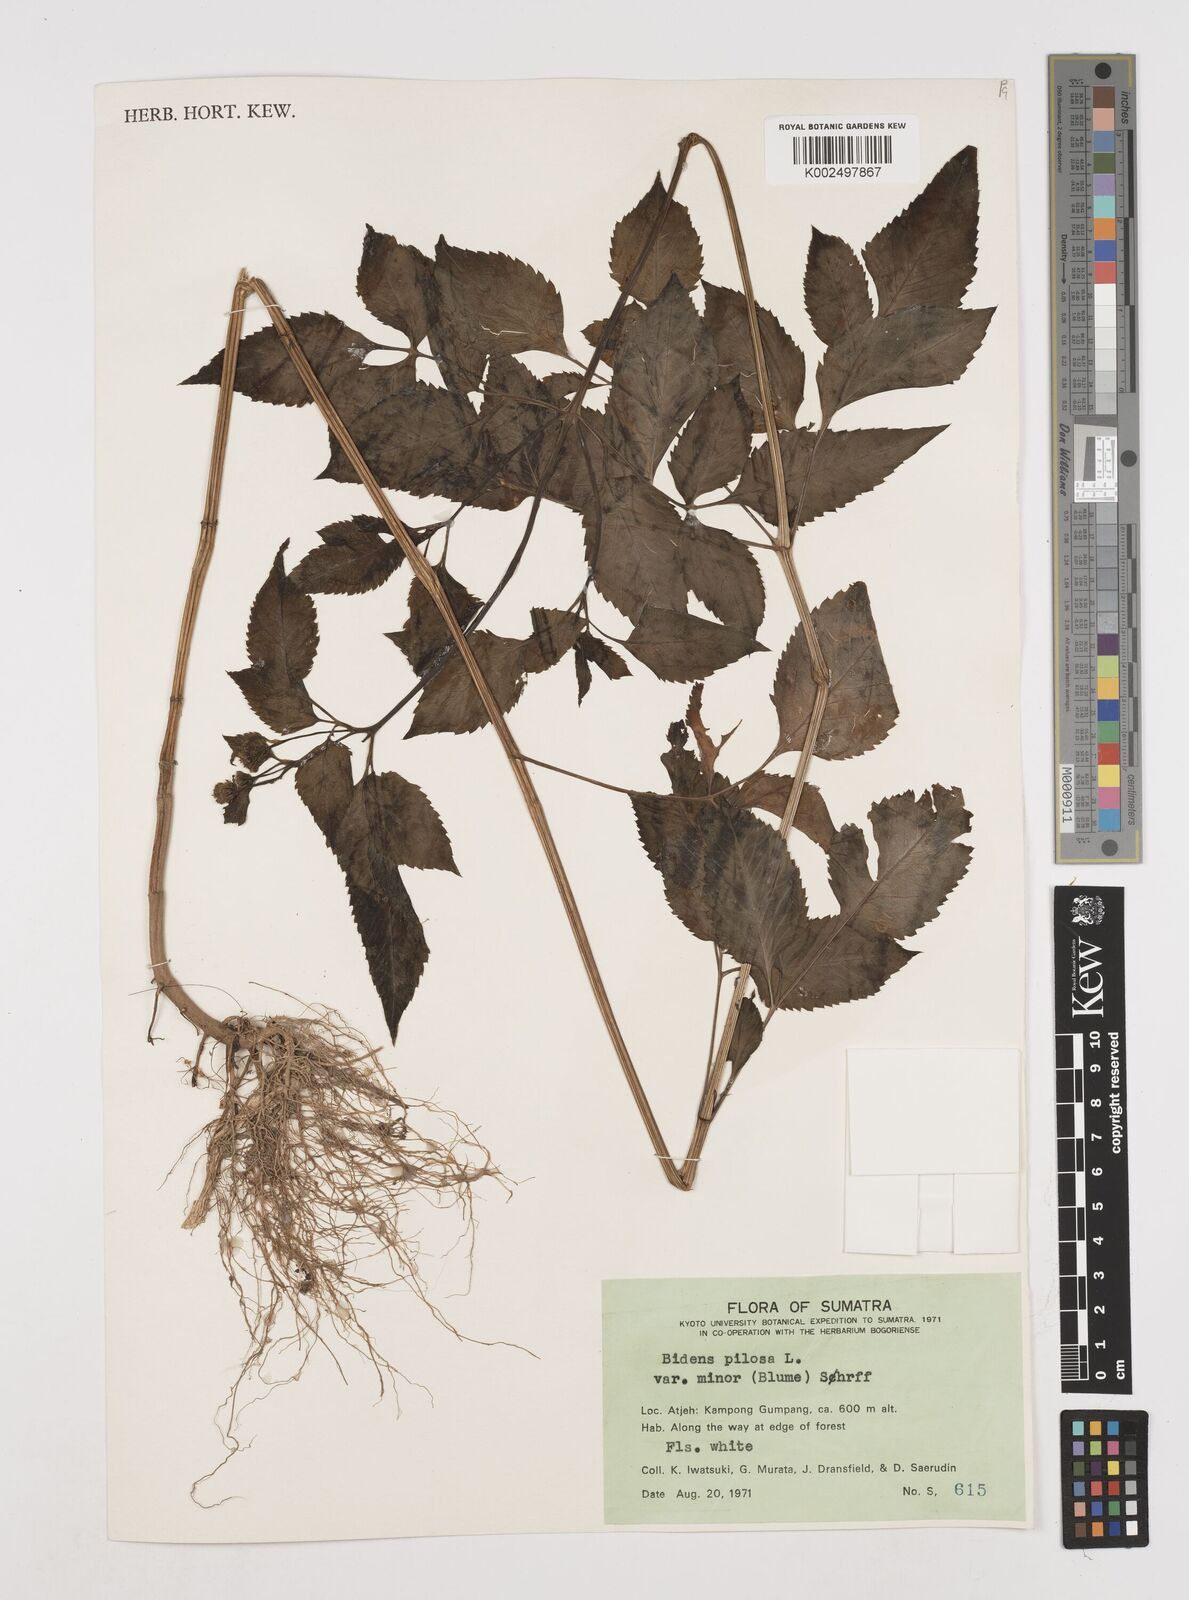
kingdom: Plantae
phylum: Tracheophyta
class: Magnoliopsida
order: Asterales
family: Asteraceae
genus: Bidens
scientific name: Bidens pilosa
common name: Black-jack
